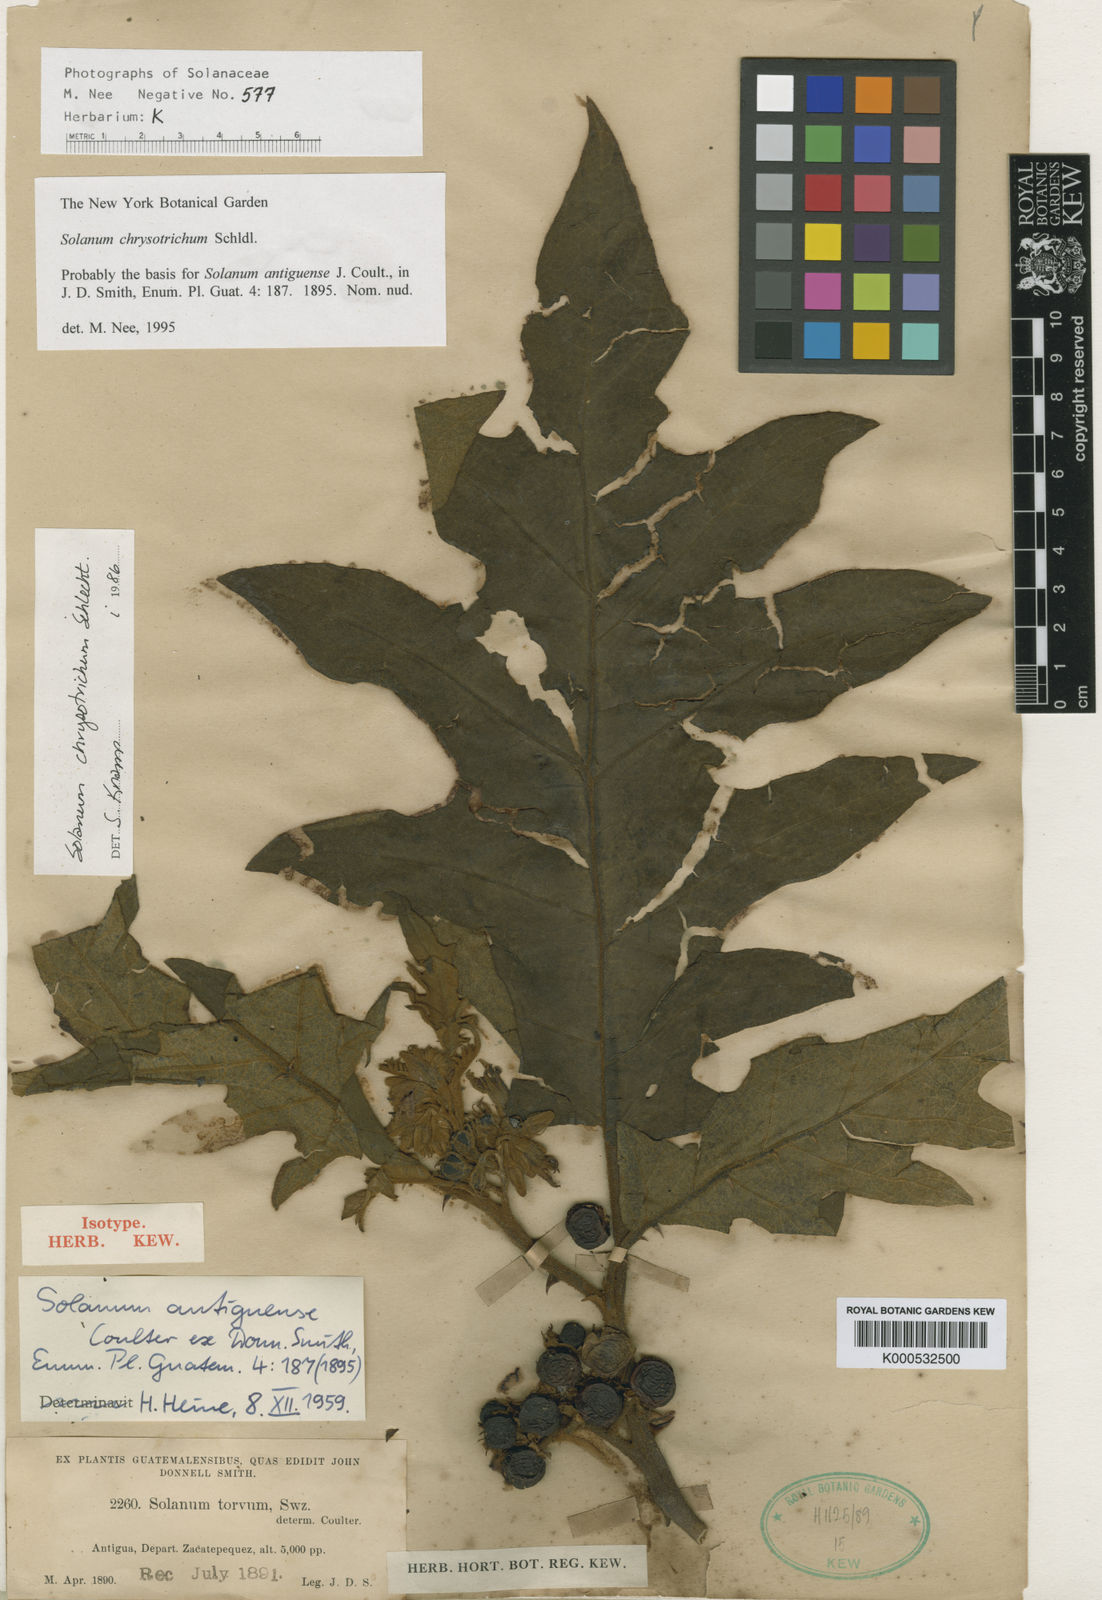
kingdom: Plantae
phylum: Tracheophyta
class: Magnoliopsida
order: Solanales
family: Solanaceae
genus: Solanum
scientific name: Solanum chrysotrichum
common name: Nightshade
